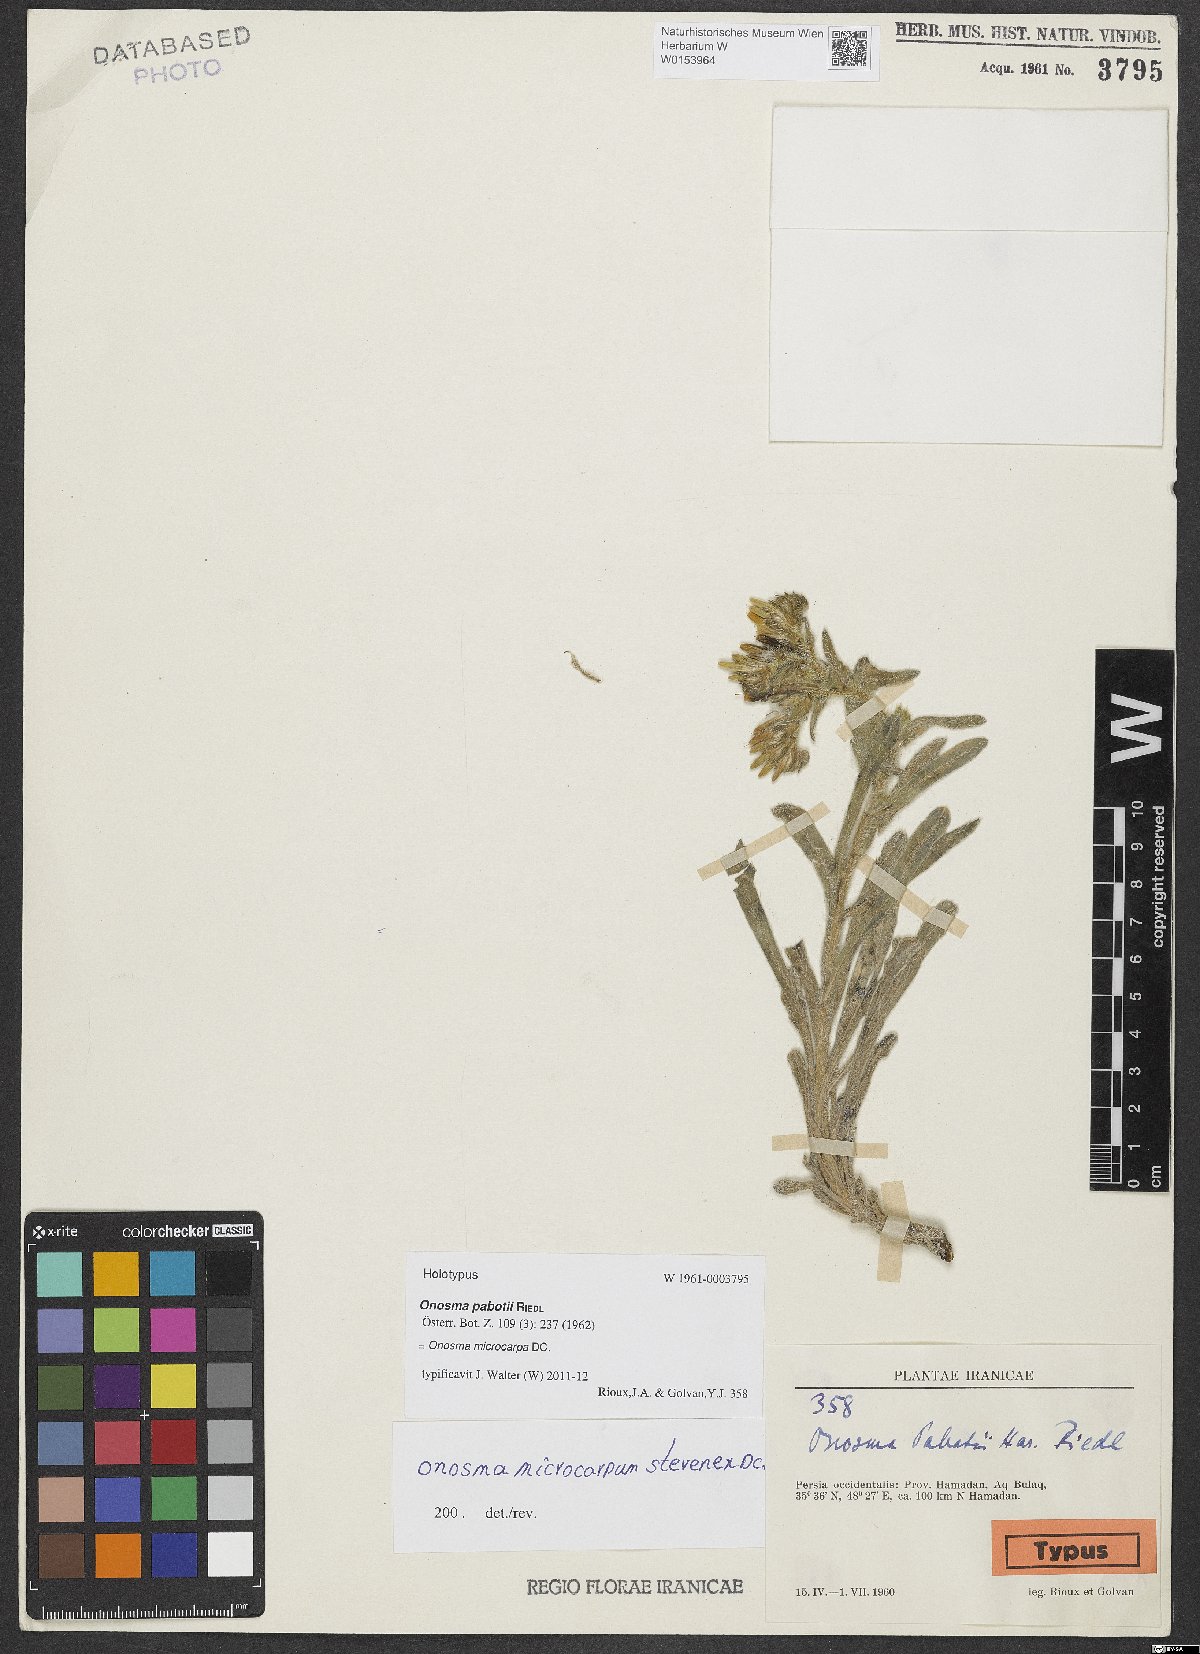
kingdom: Plantae
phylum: Tracheophyta
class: Magnoliopsida
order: Boraginales
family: Boraginaceae
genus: Onosma
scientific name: Onosma pabotii
